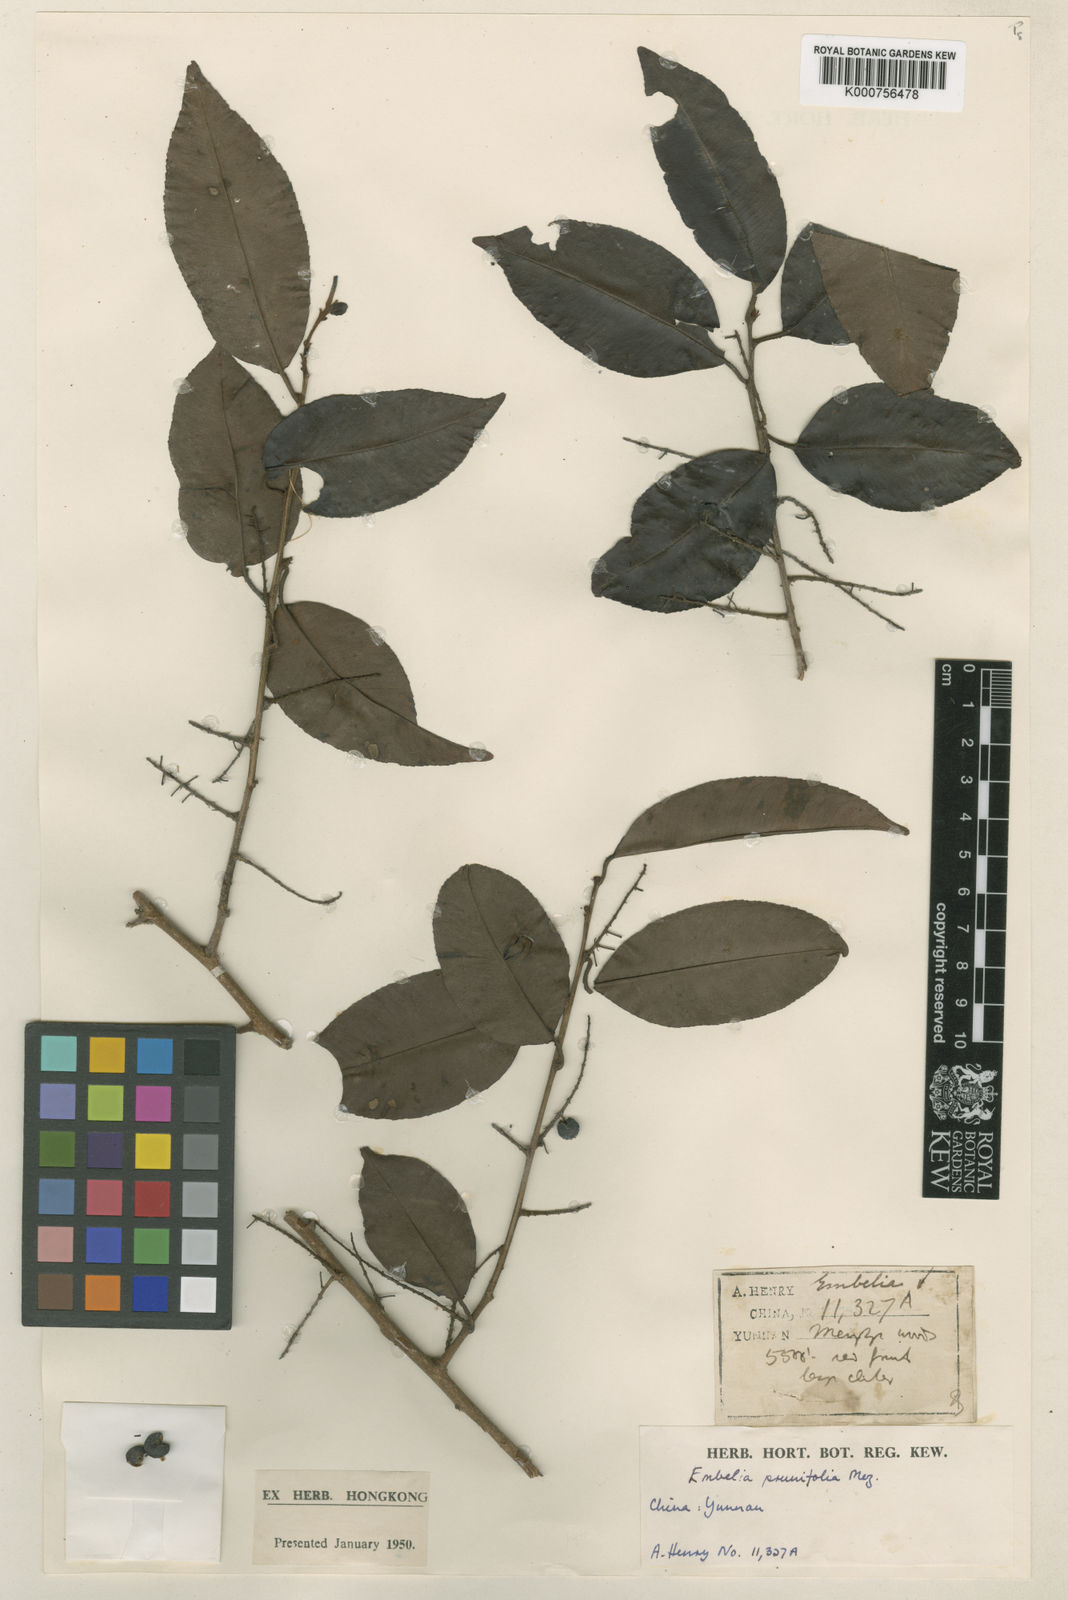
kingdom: Plantae
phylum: Tracheophyta
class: Magnoliopsida
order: Ericales
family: Primulaceae
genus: Embelia
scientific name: Embelia vestita
